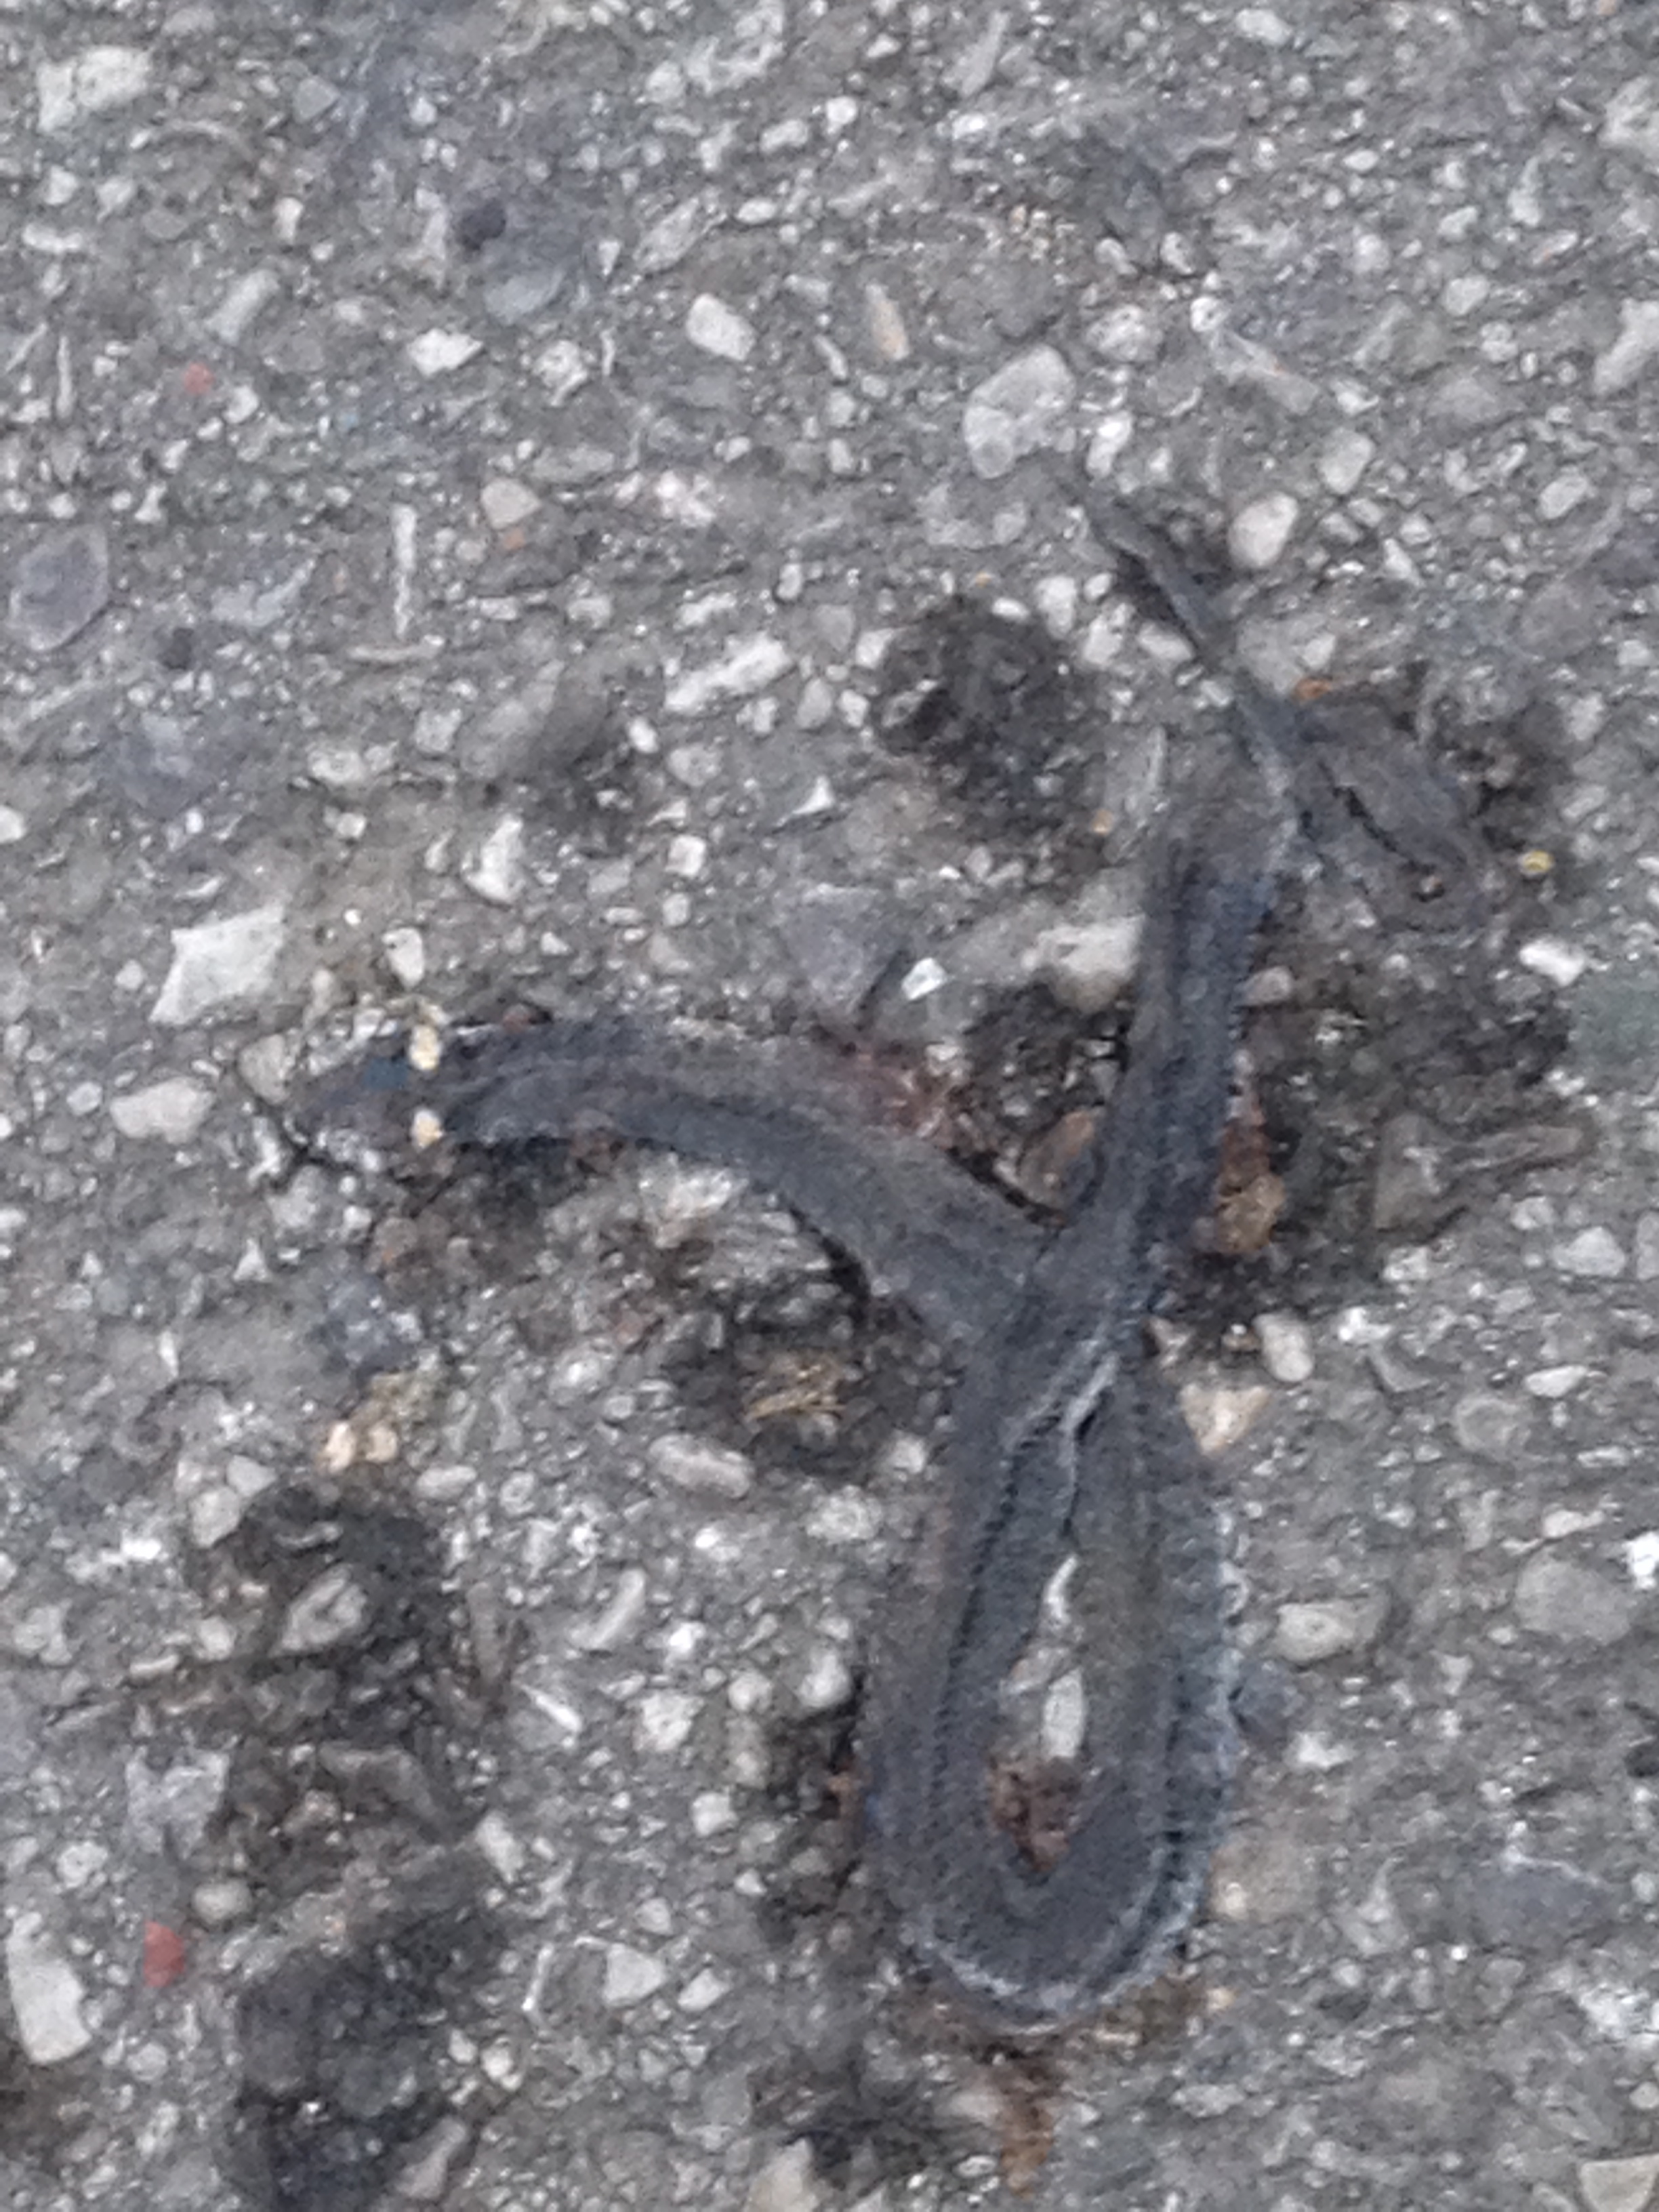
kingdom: Animalia
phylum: Chordata
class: Squamata
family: Colubridae
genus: Natrix
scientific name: Natrix natrix
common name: Grass snake
